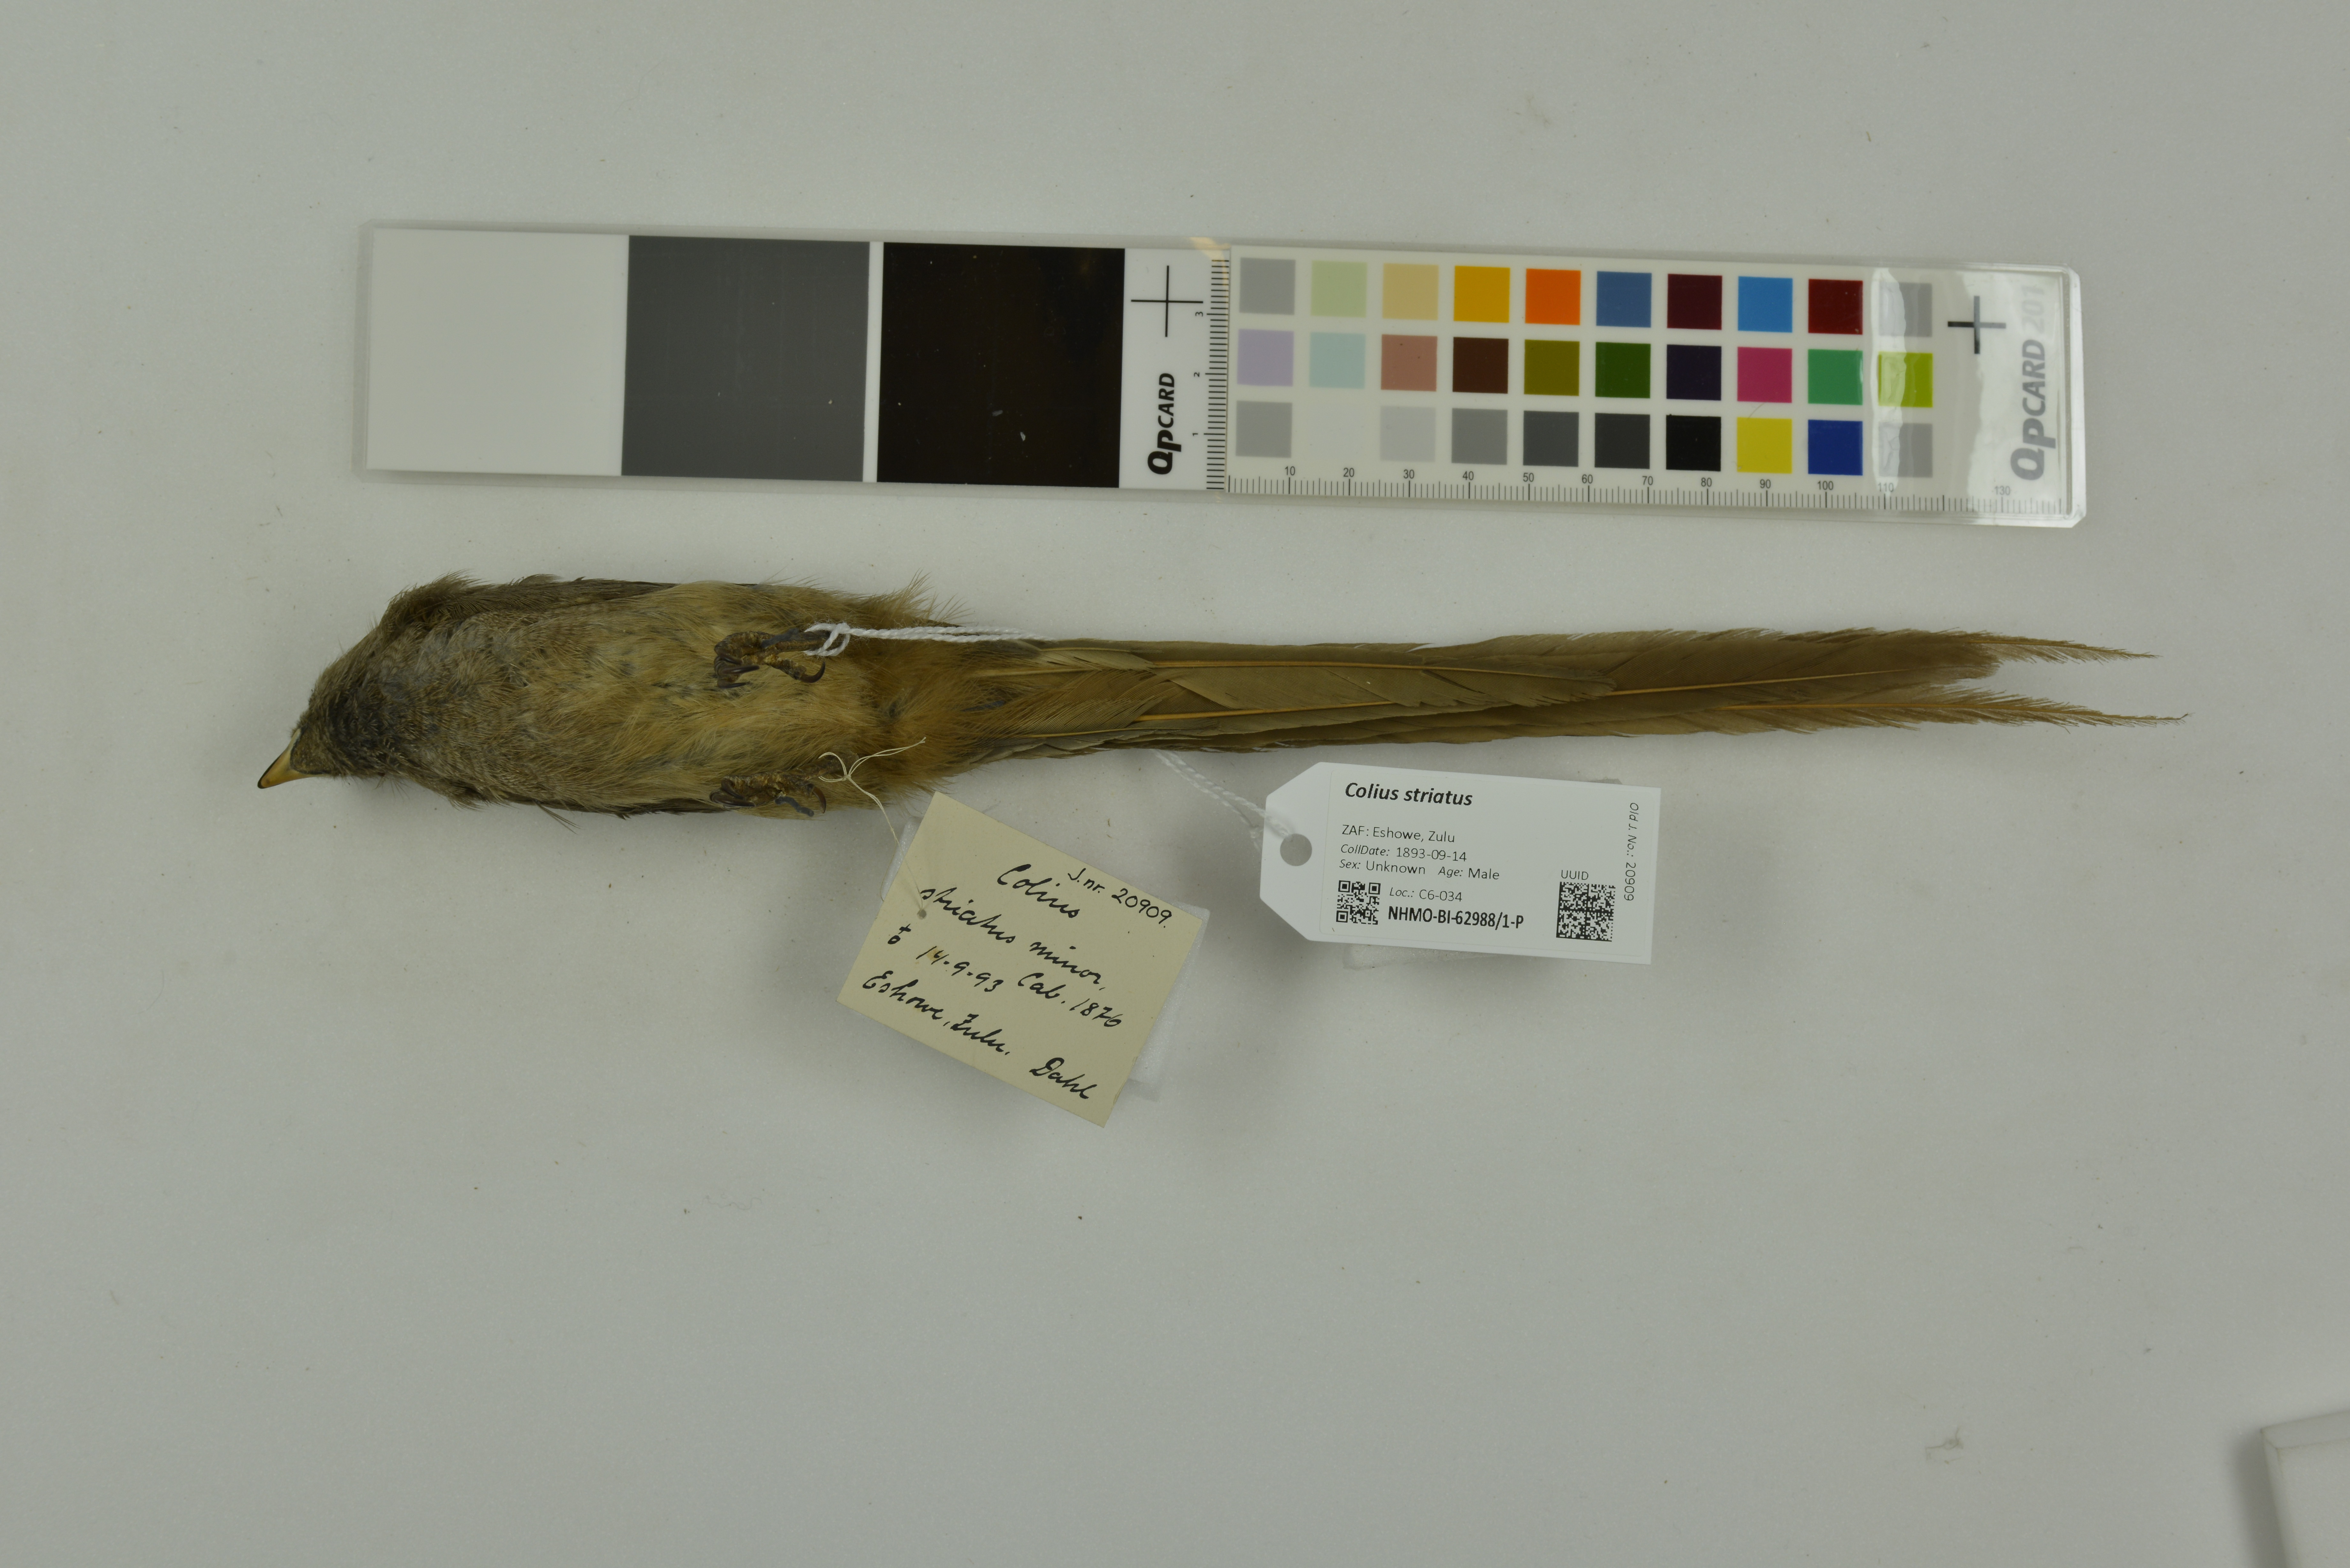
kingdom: Animalia
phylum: Chordata
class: Aves
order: Coliiformes
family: Coliidae
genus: Colius
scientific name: Colius striatus
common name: Speckled mousebird
